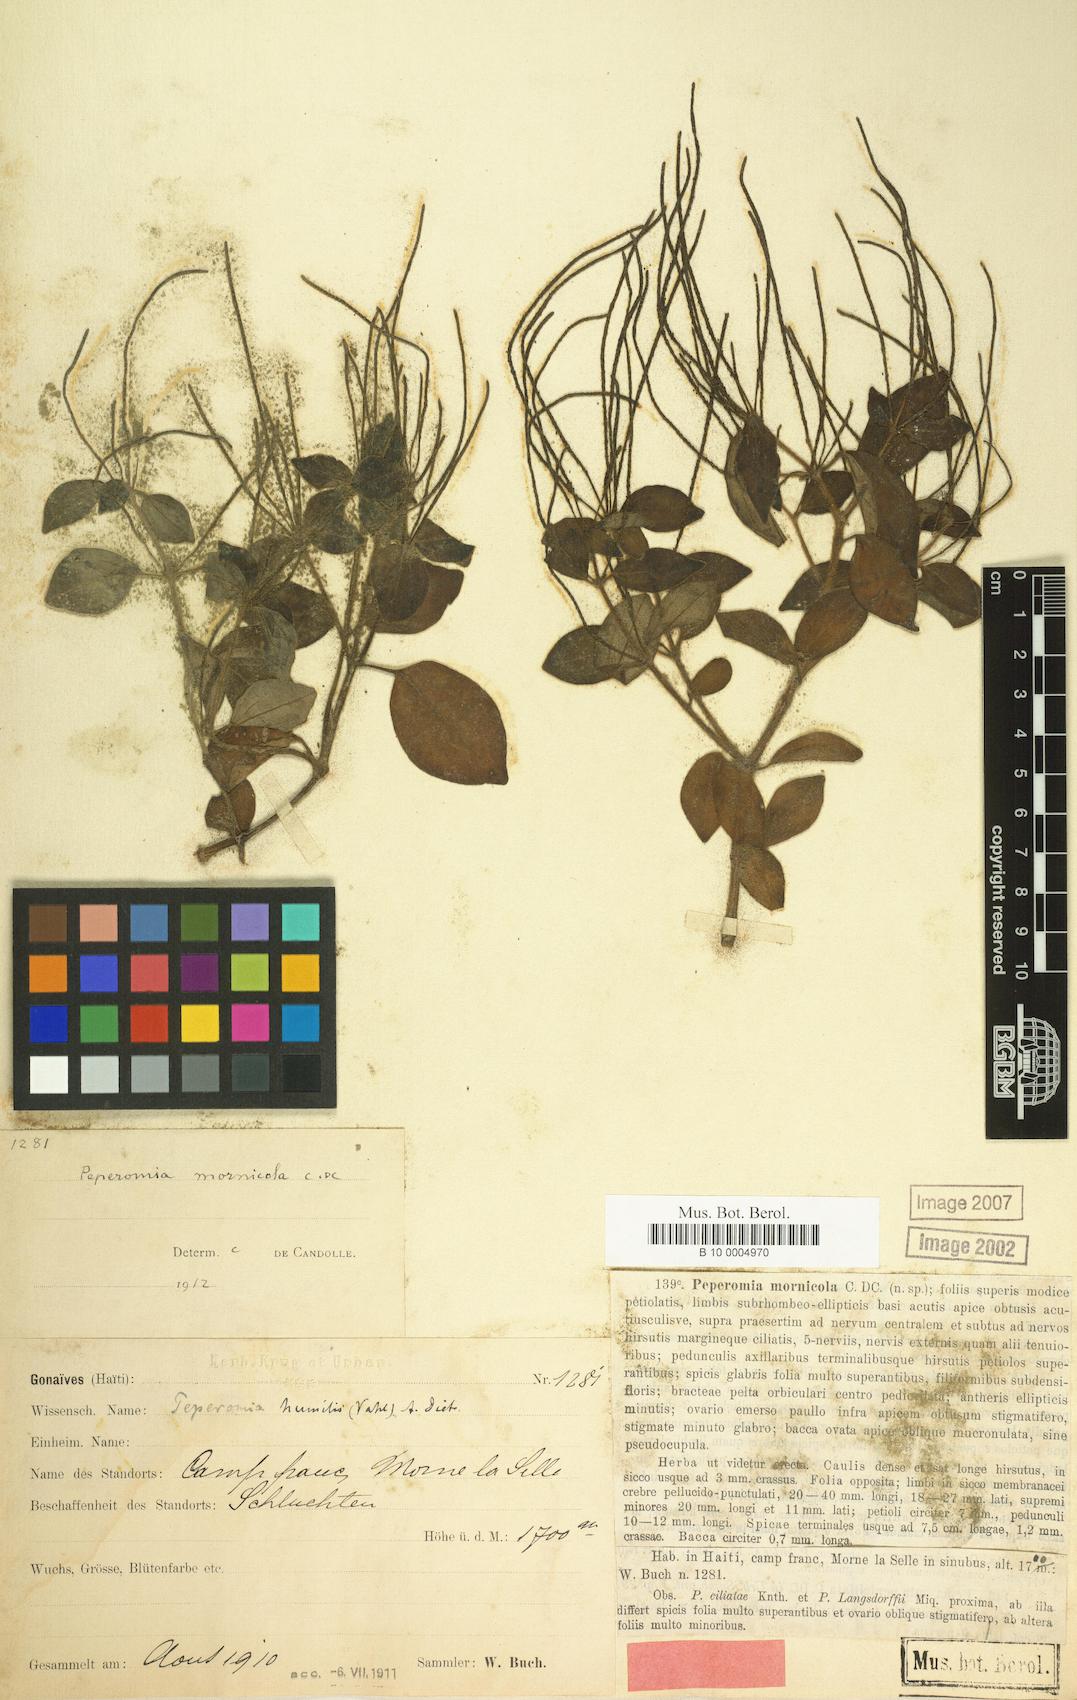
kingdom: Plantae
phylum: Tracheophyta
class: Magnoliopsida
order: Piperales
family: Piperaceae
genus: Peperomia
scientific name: Peperomia humilis
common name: Polynesian peperomia
